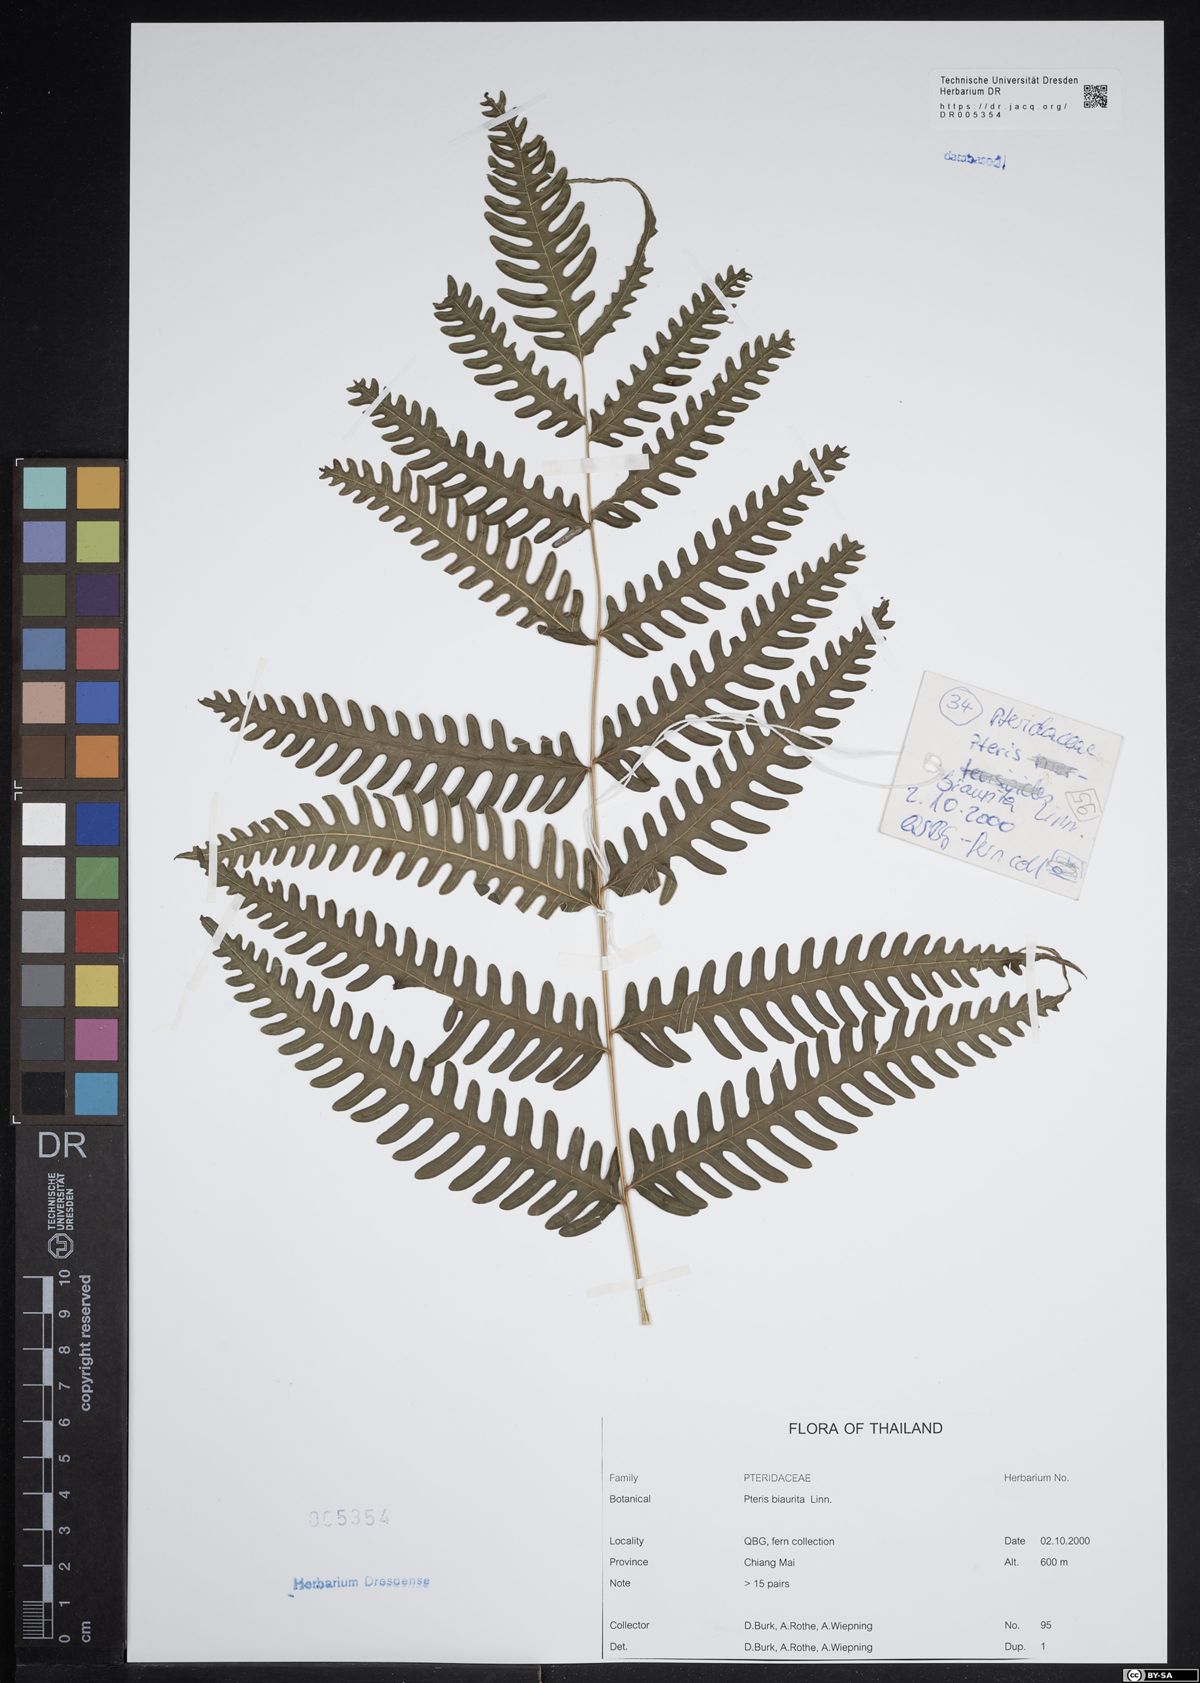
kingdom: Plantae
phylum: Tracheophyta
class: Polypodiopsida
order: Polypodiales
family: Pteridaceae
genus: Pteris
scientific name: Pteris biaurita
